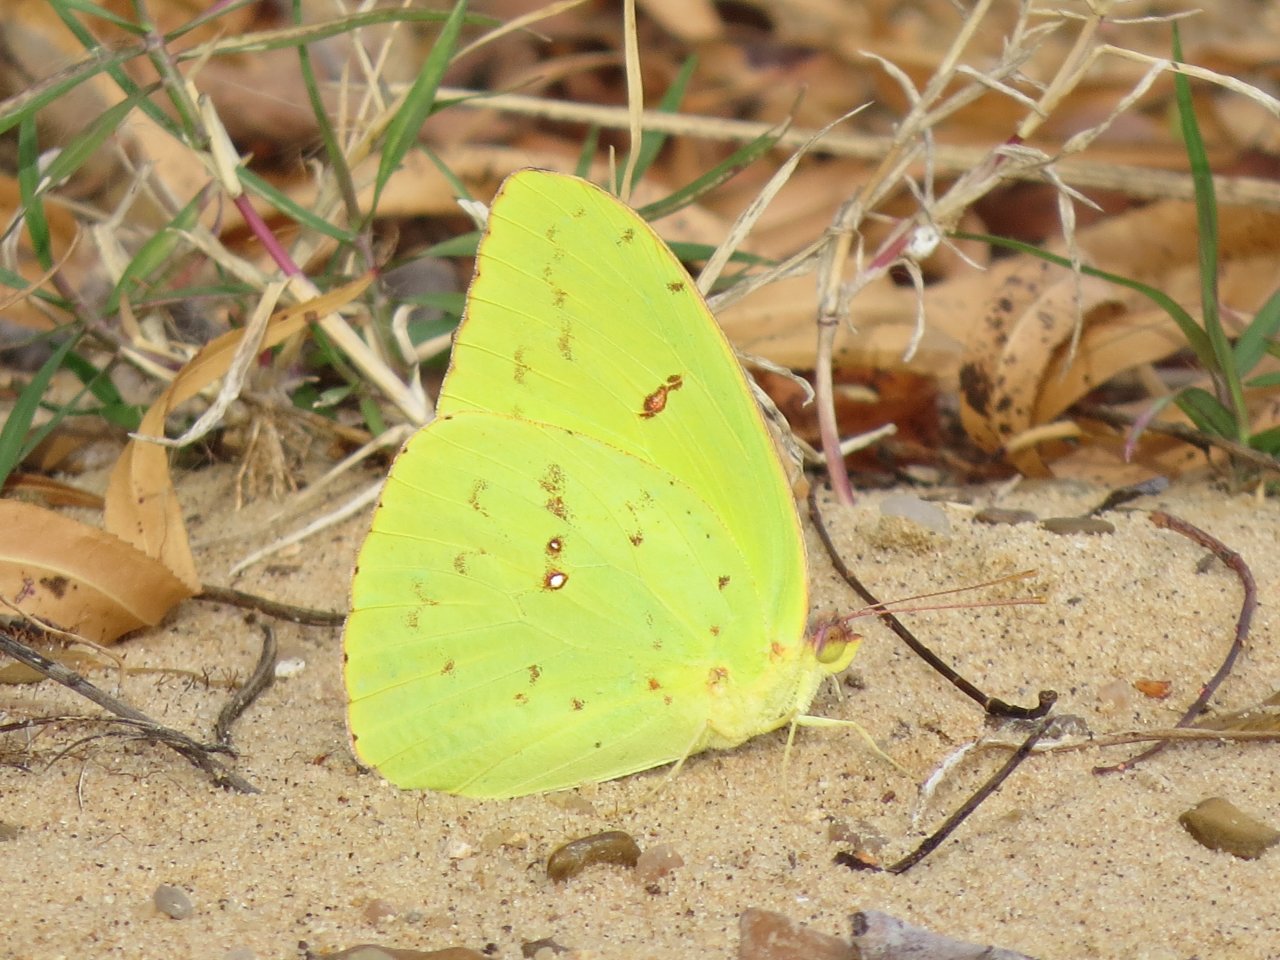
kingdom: Animalia
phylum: Arthropoda
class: Insecta
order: Lepidoptera
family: Pieridae
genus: Phoebis
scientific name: Phoebis sennae
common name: Cloudless Sulphur
